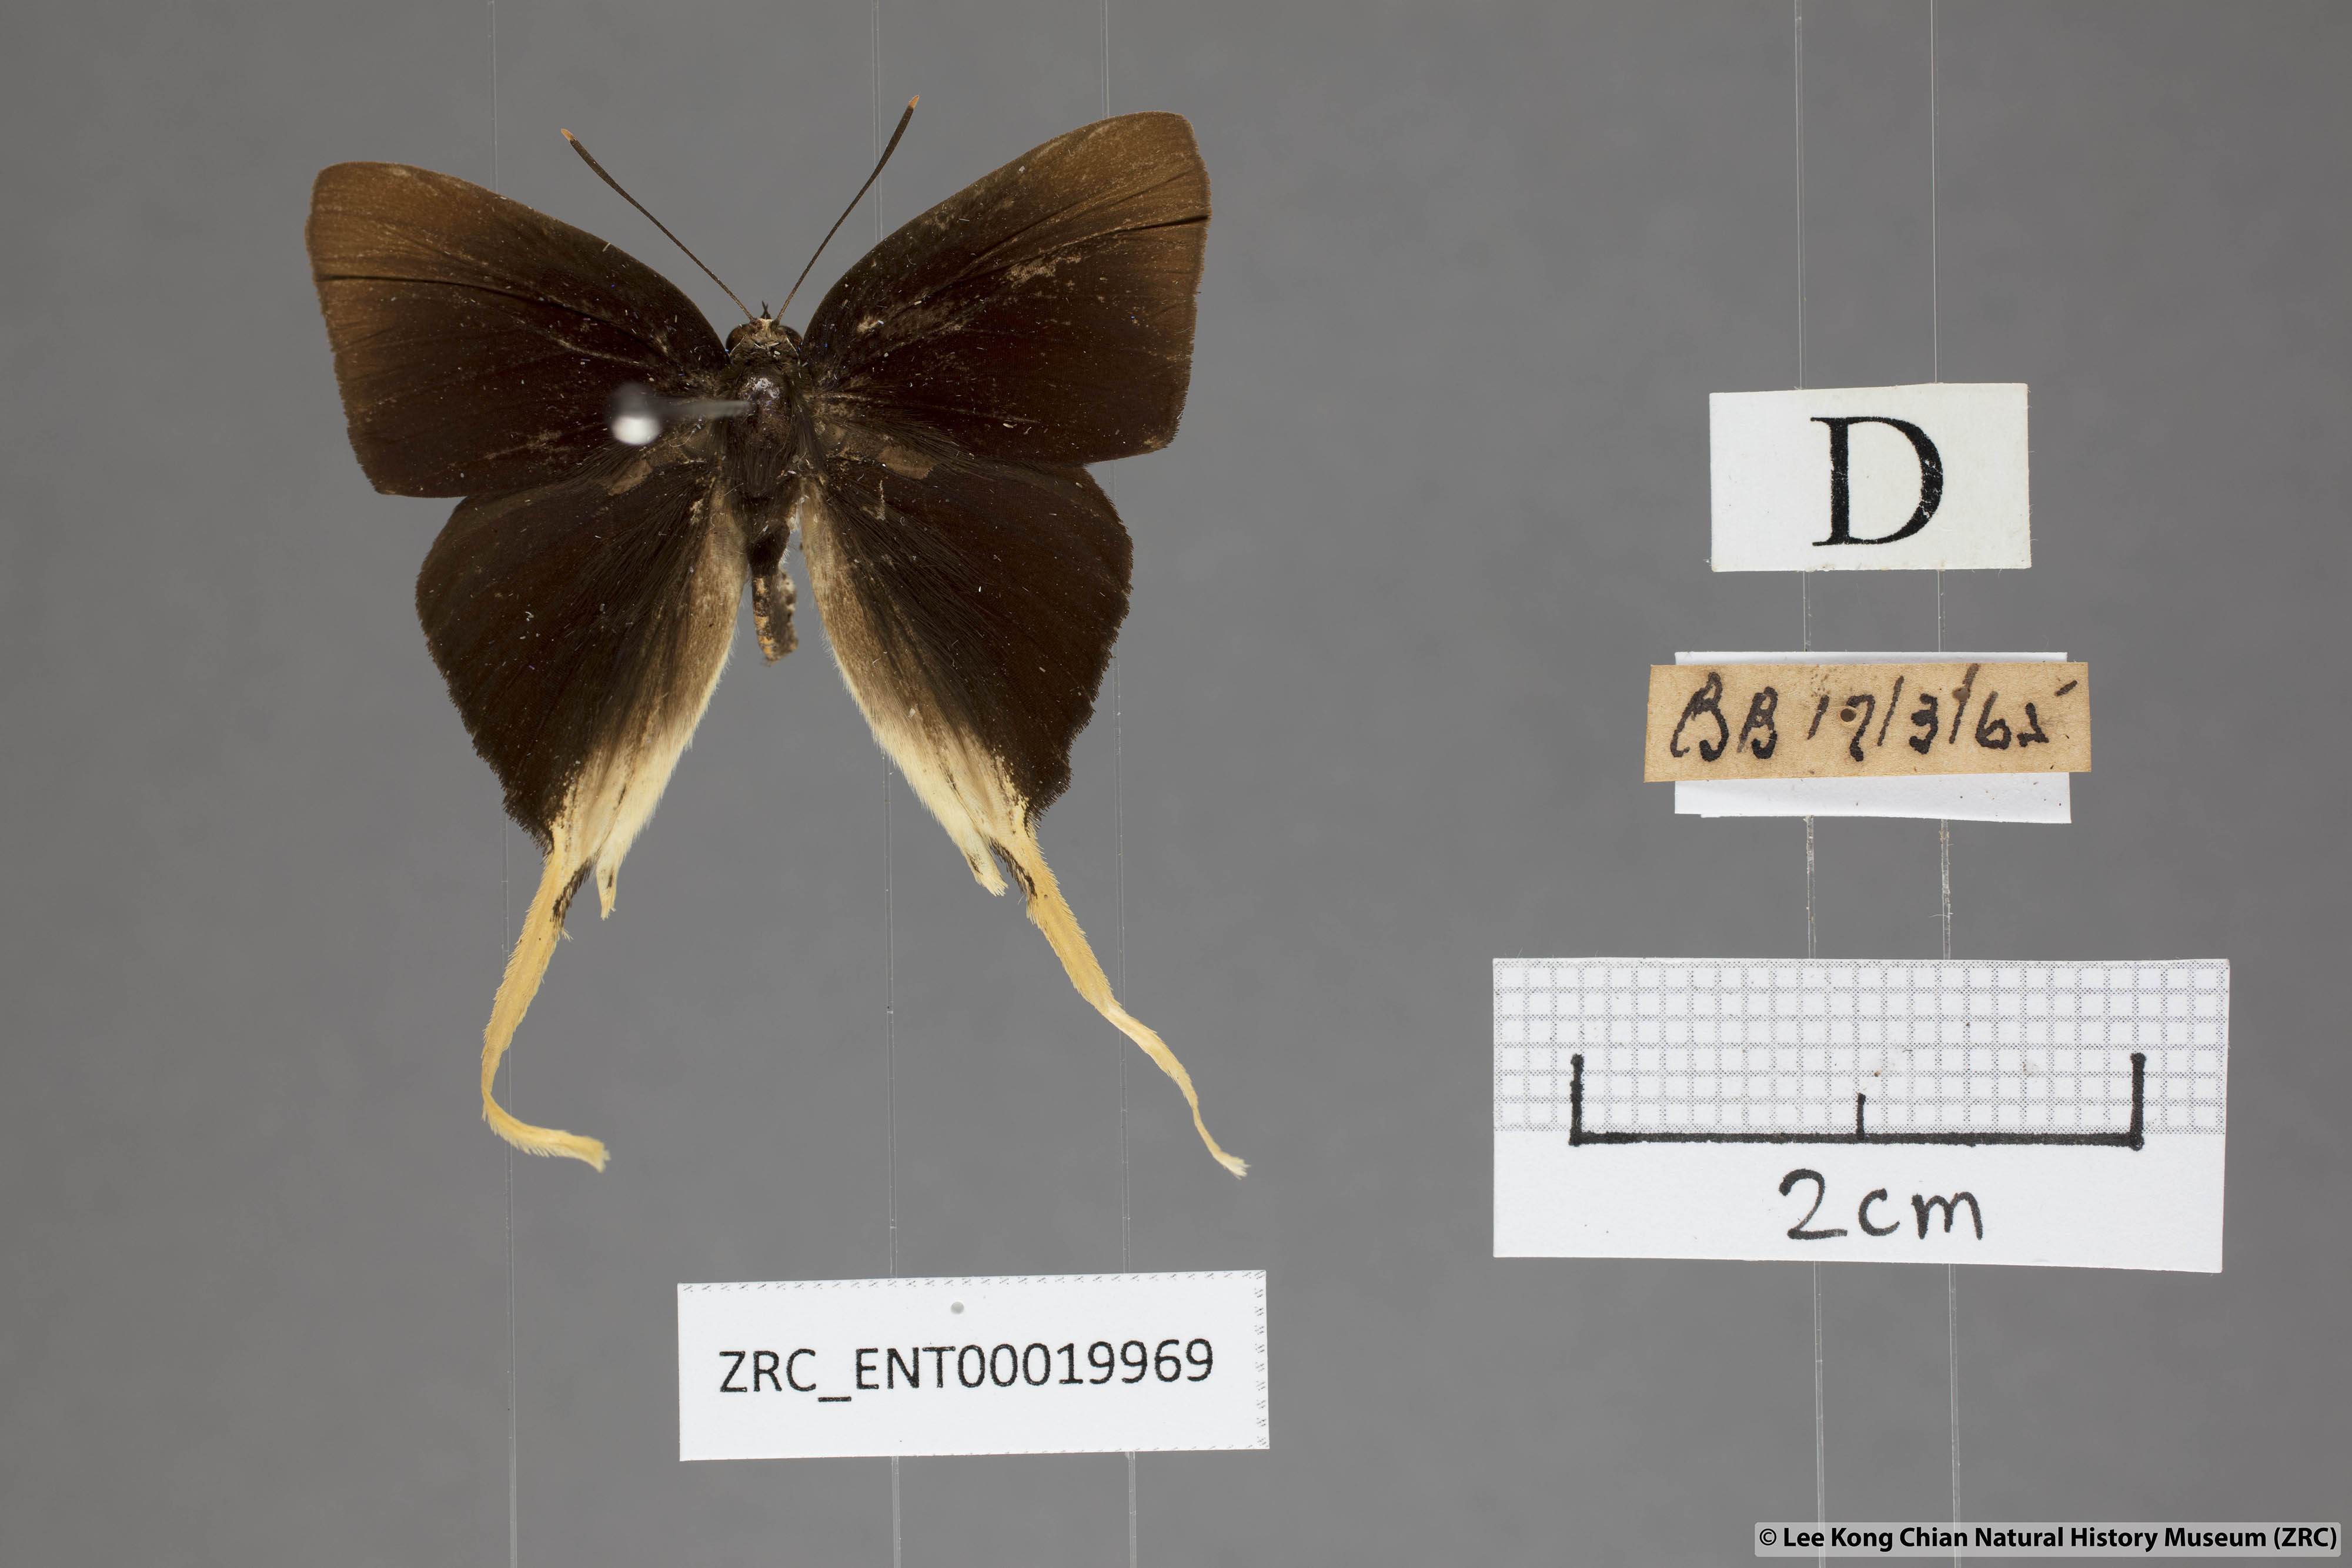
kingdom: Animalia
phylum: Arthropoda
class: Insecta
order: Lepidoptera
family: Lycaenidae
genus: Bindahara
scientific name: Bindahara phocides
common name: Sword-tailed flash
